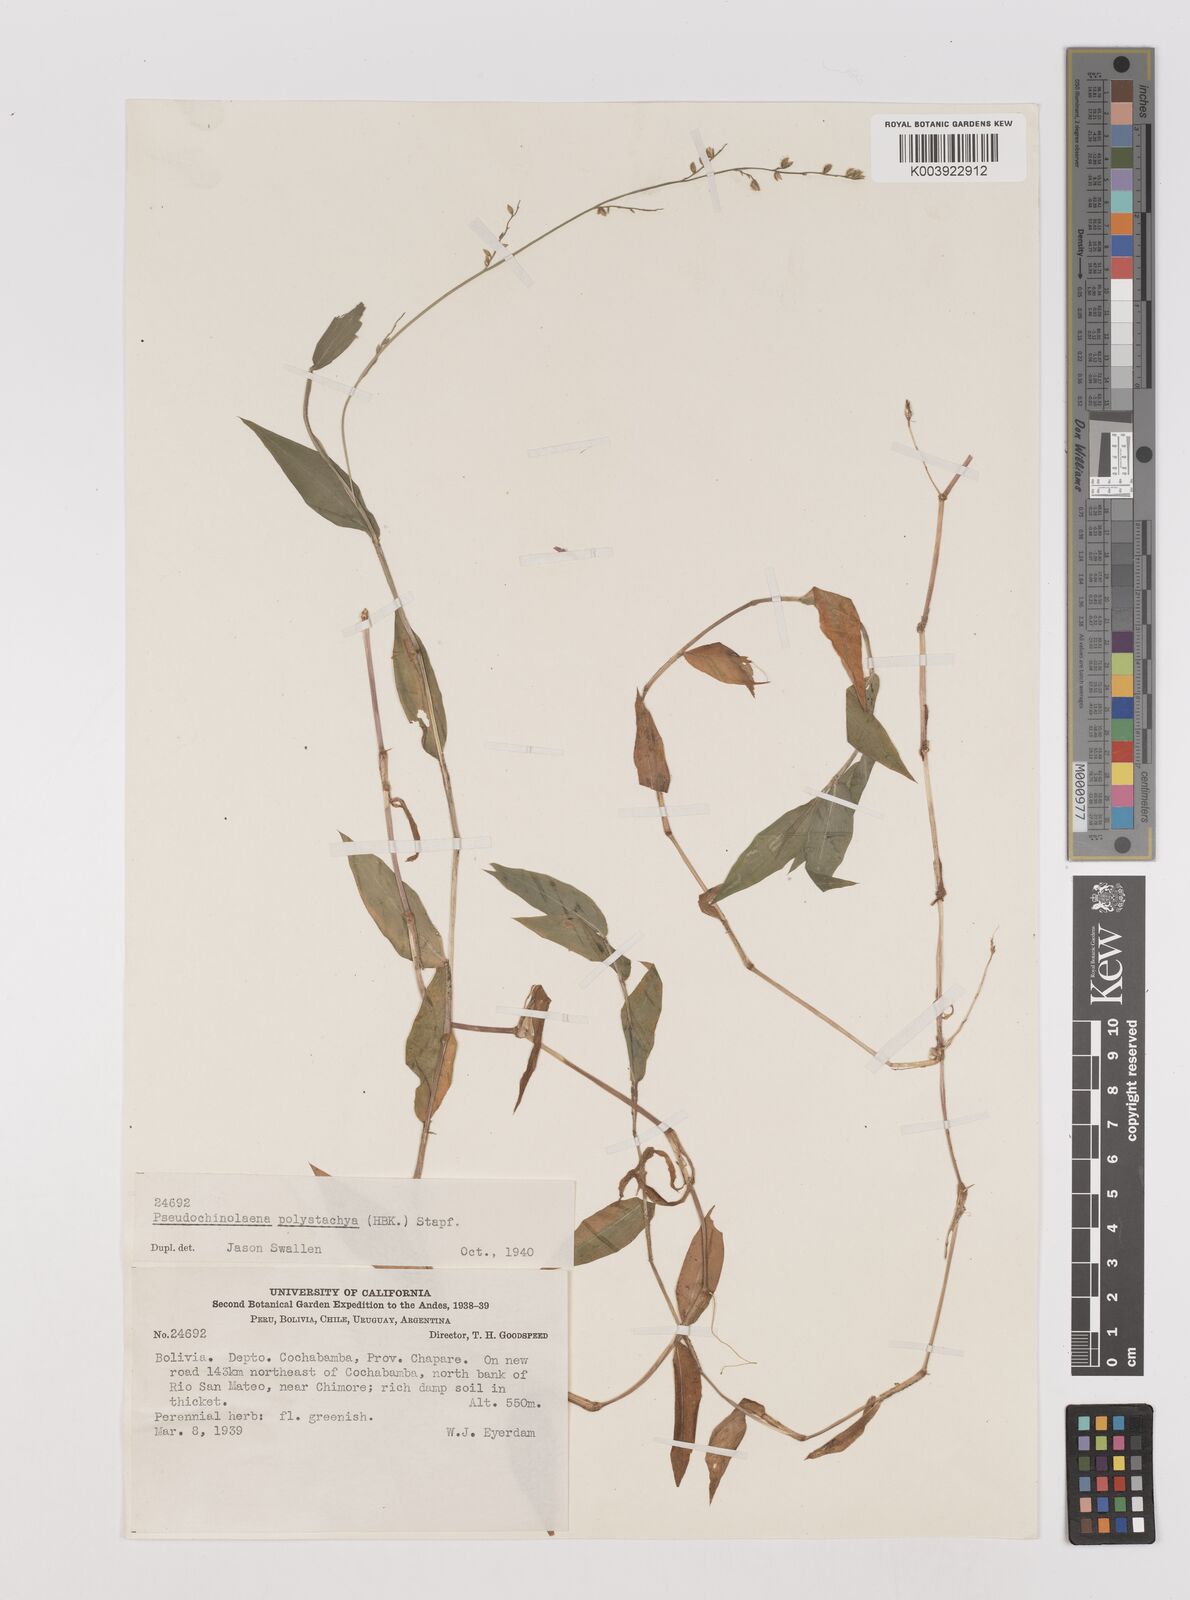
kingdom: Plantae
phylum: Tracheophyta
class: Liliopsida
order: Poales
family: Poaceae
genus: Pseudechinolaena
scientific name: Pseudechinolaena polystachya
